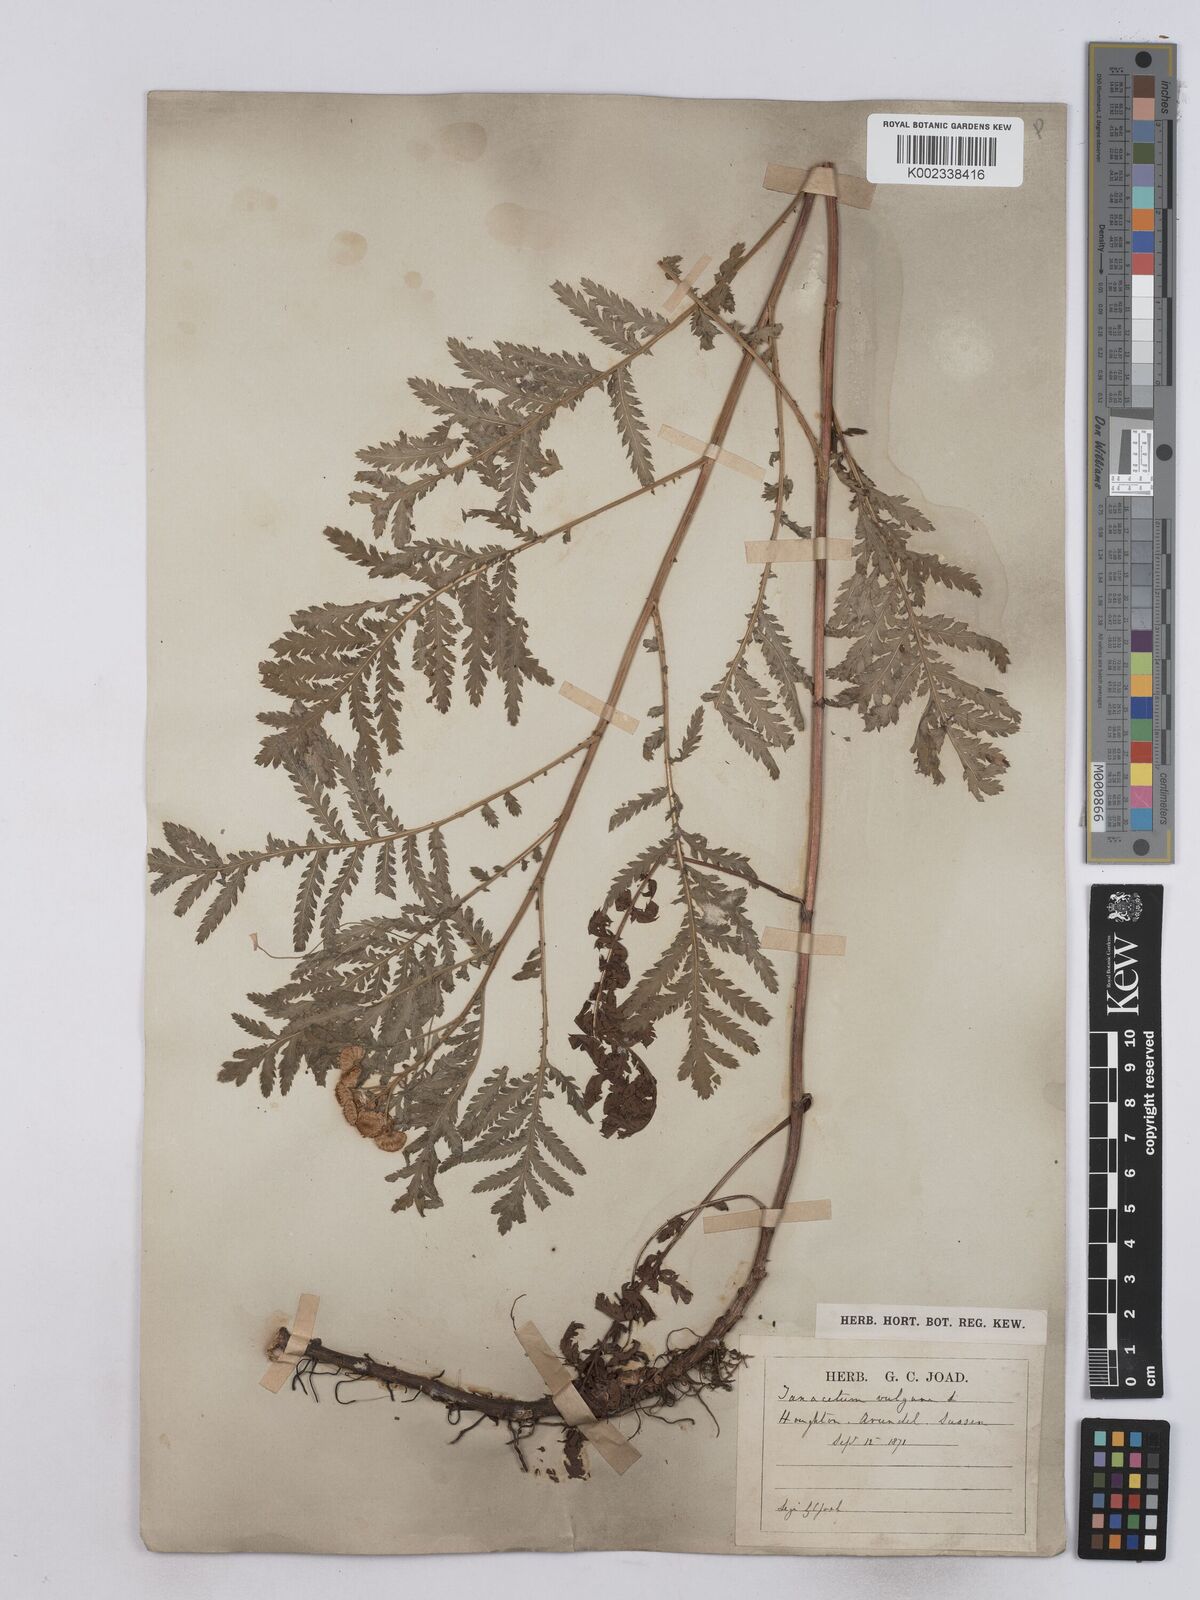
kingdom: Plantae
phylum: Tracheophyta
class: Magnoliopsida
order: Asterales
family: Asteraceae
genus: Tanacetum
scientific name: Tanacetum vulgare
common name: Common tansy
